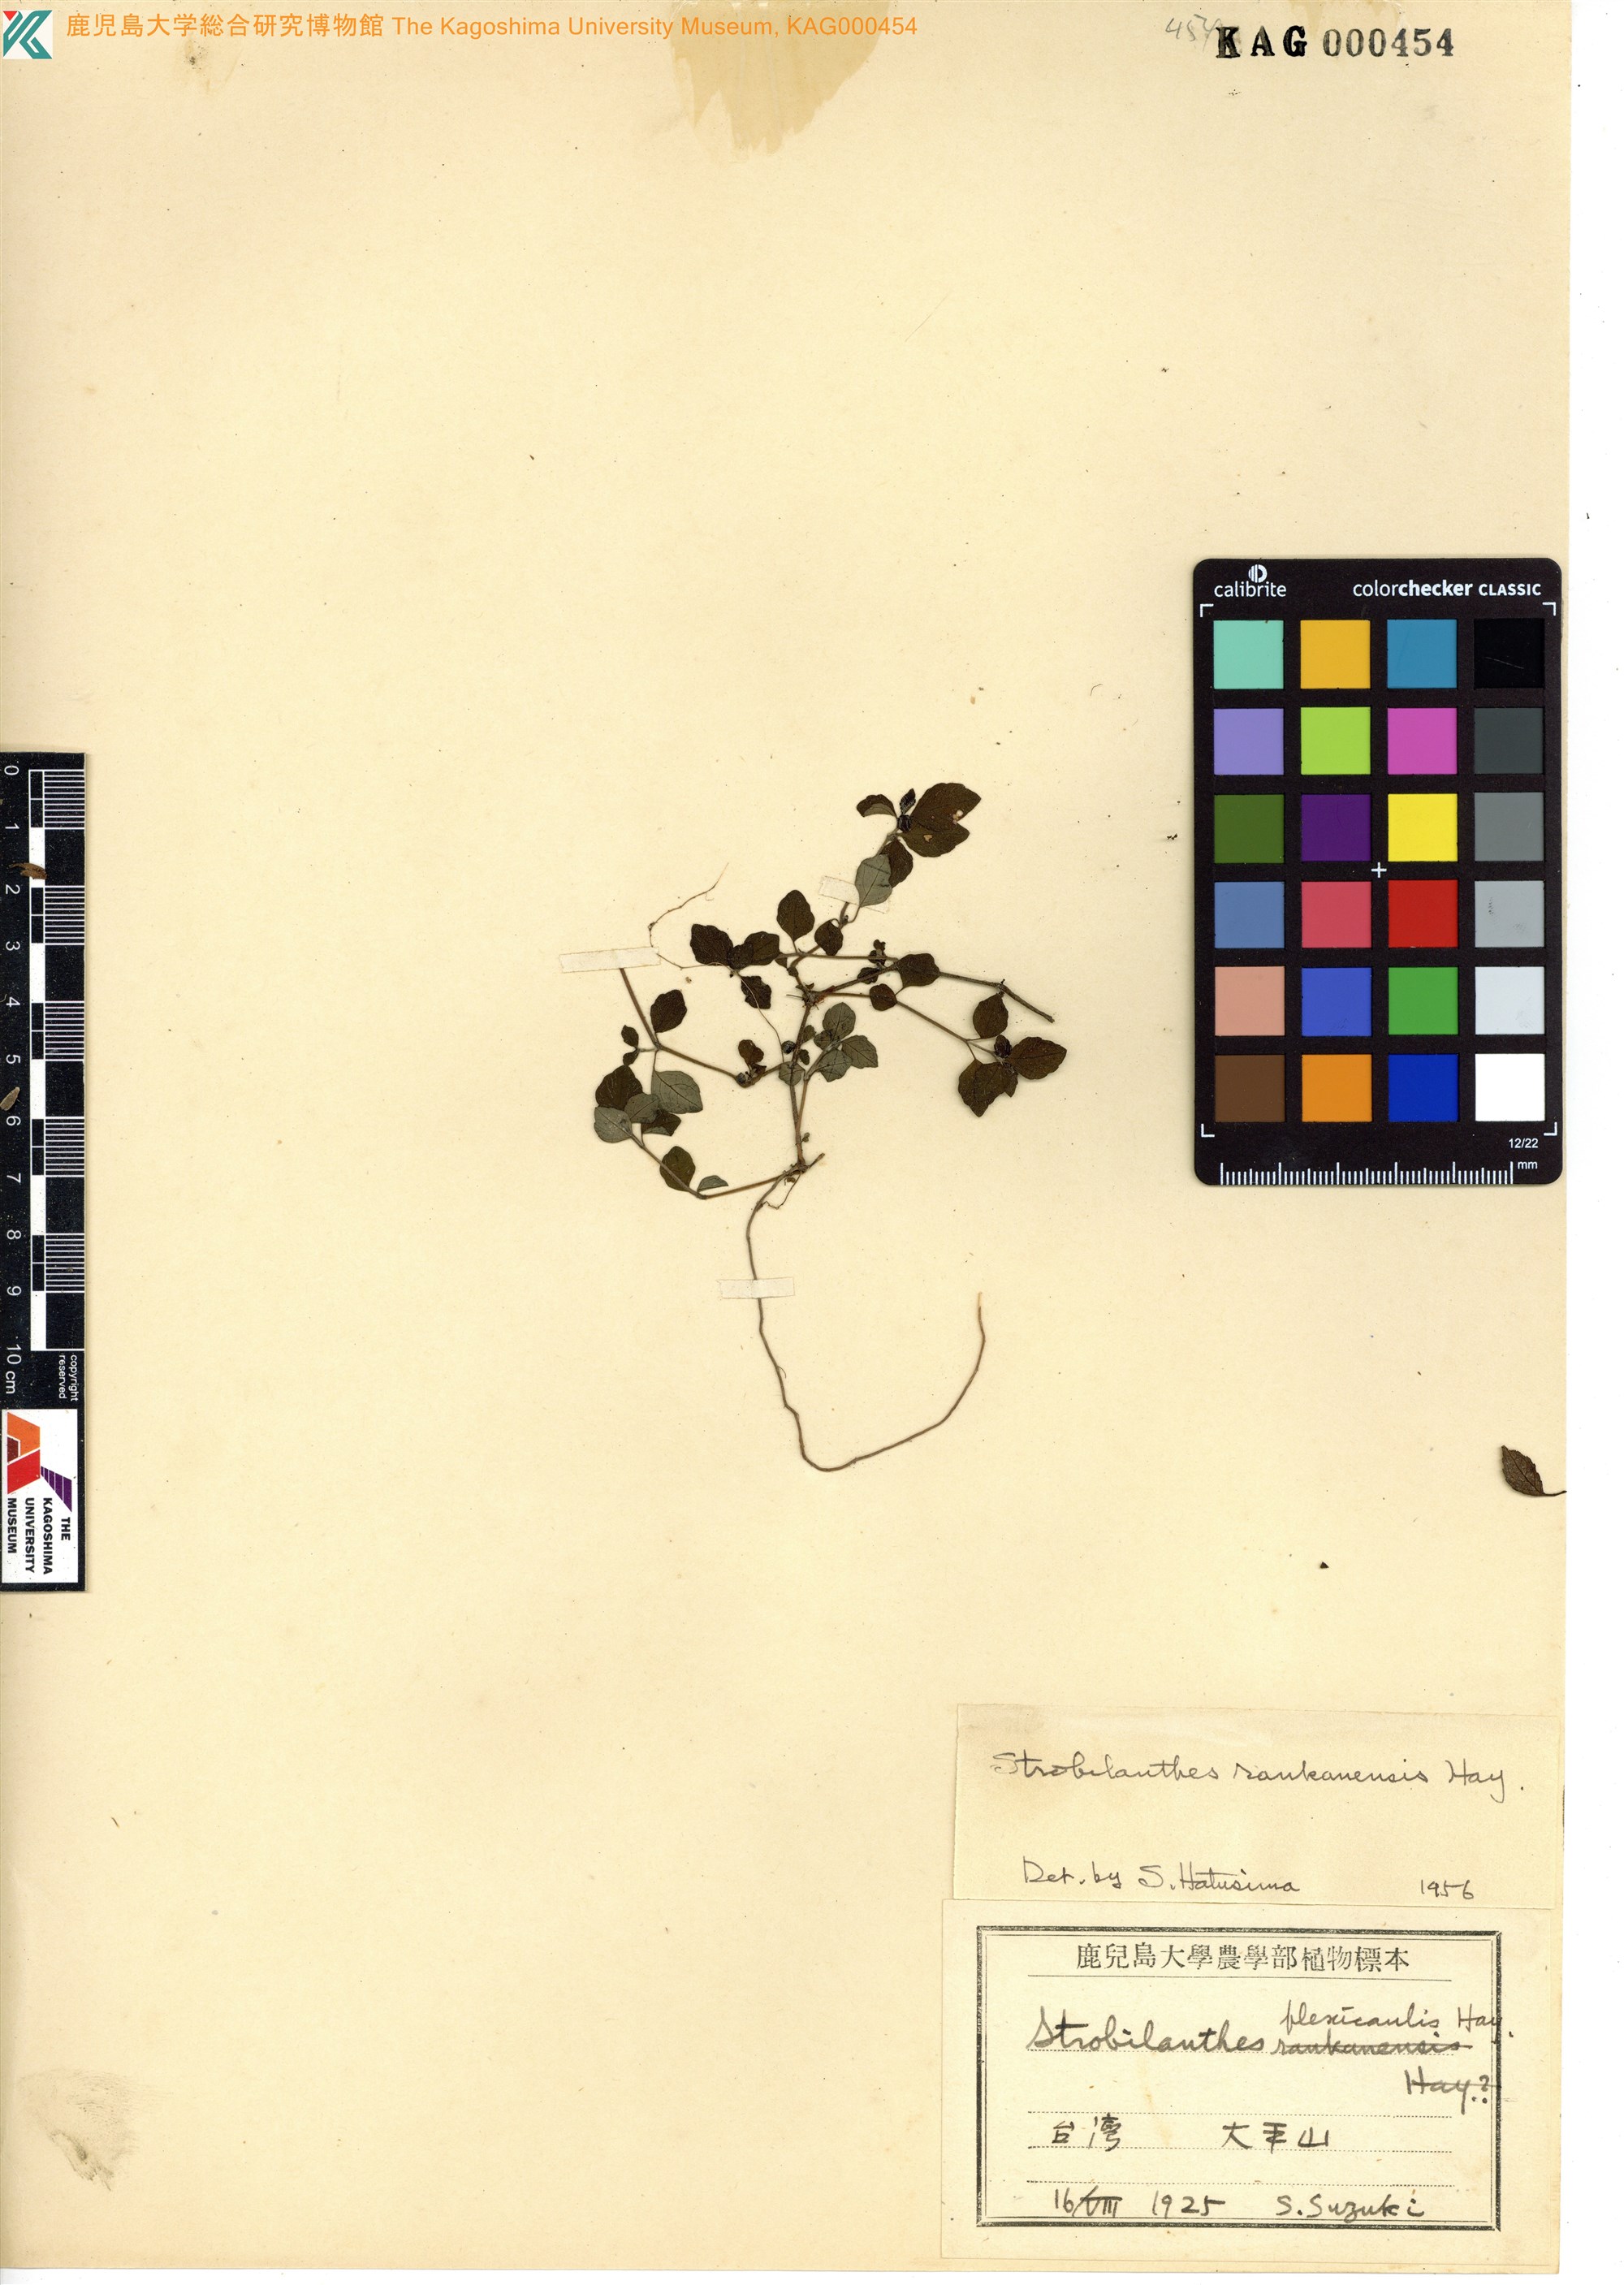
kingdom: Plantae
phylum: Tracheophyta
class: Magnoliopsida
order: Lamiales
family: Acanthaceae
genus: Strobilanthes
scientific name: Strobilanthes rankanensis
